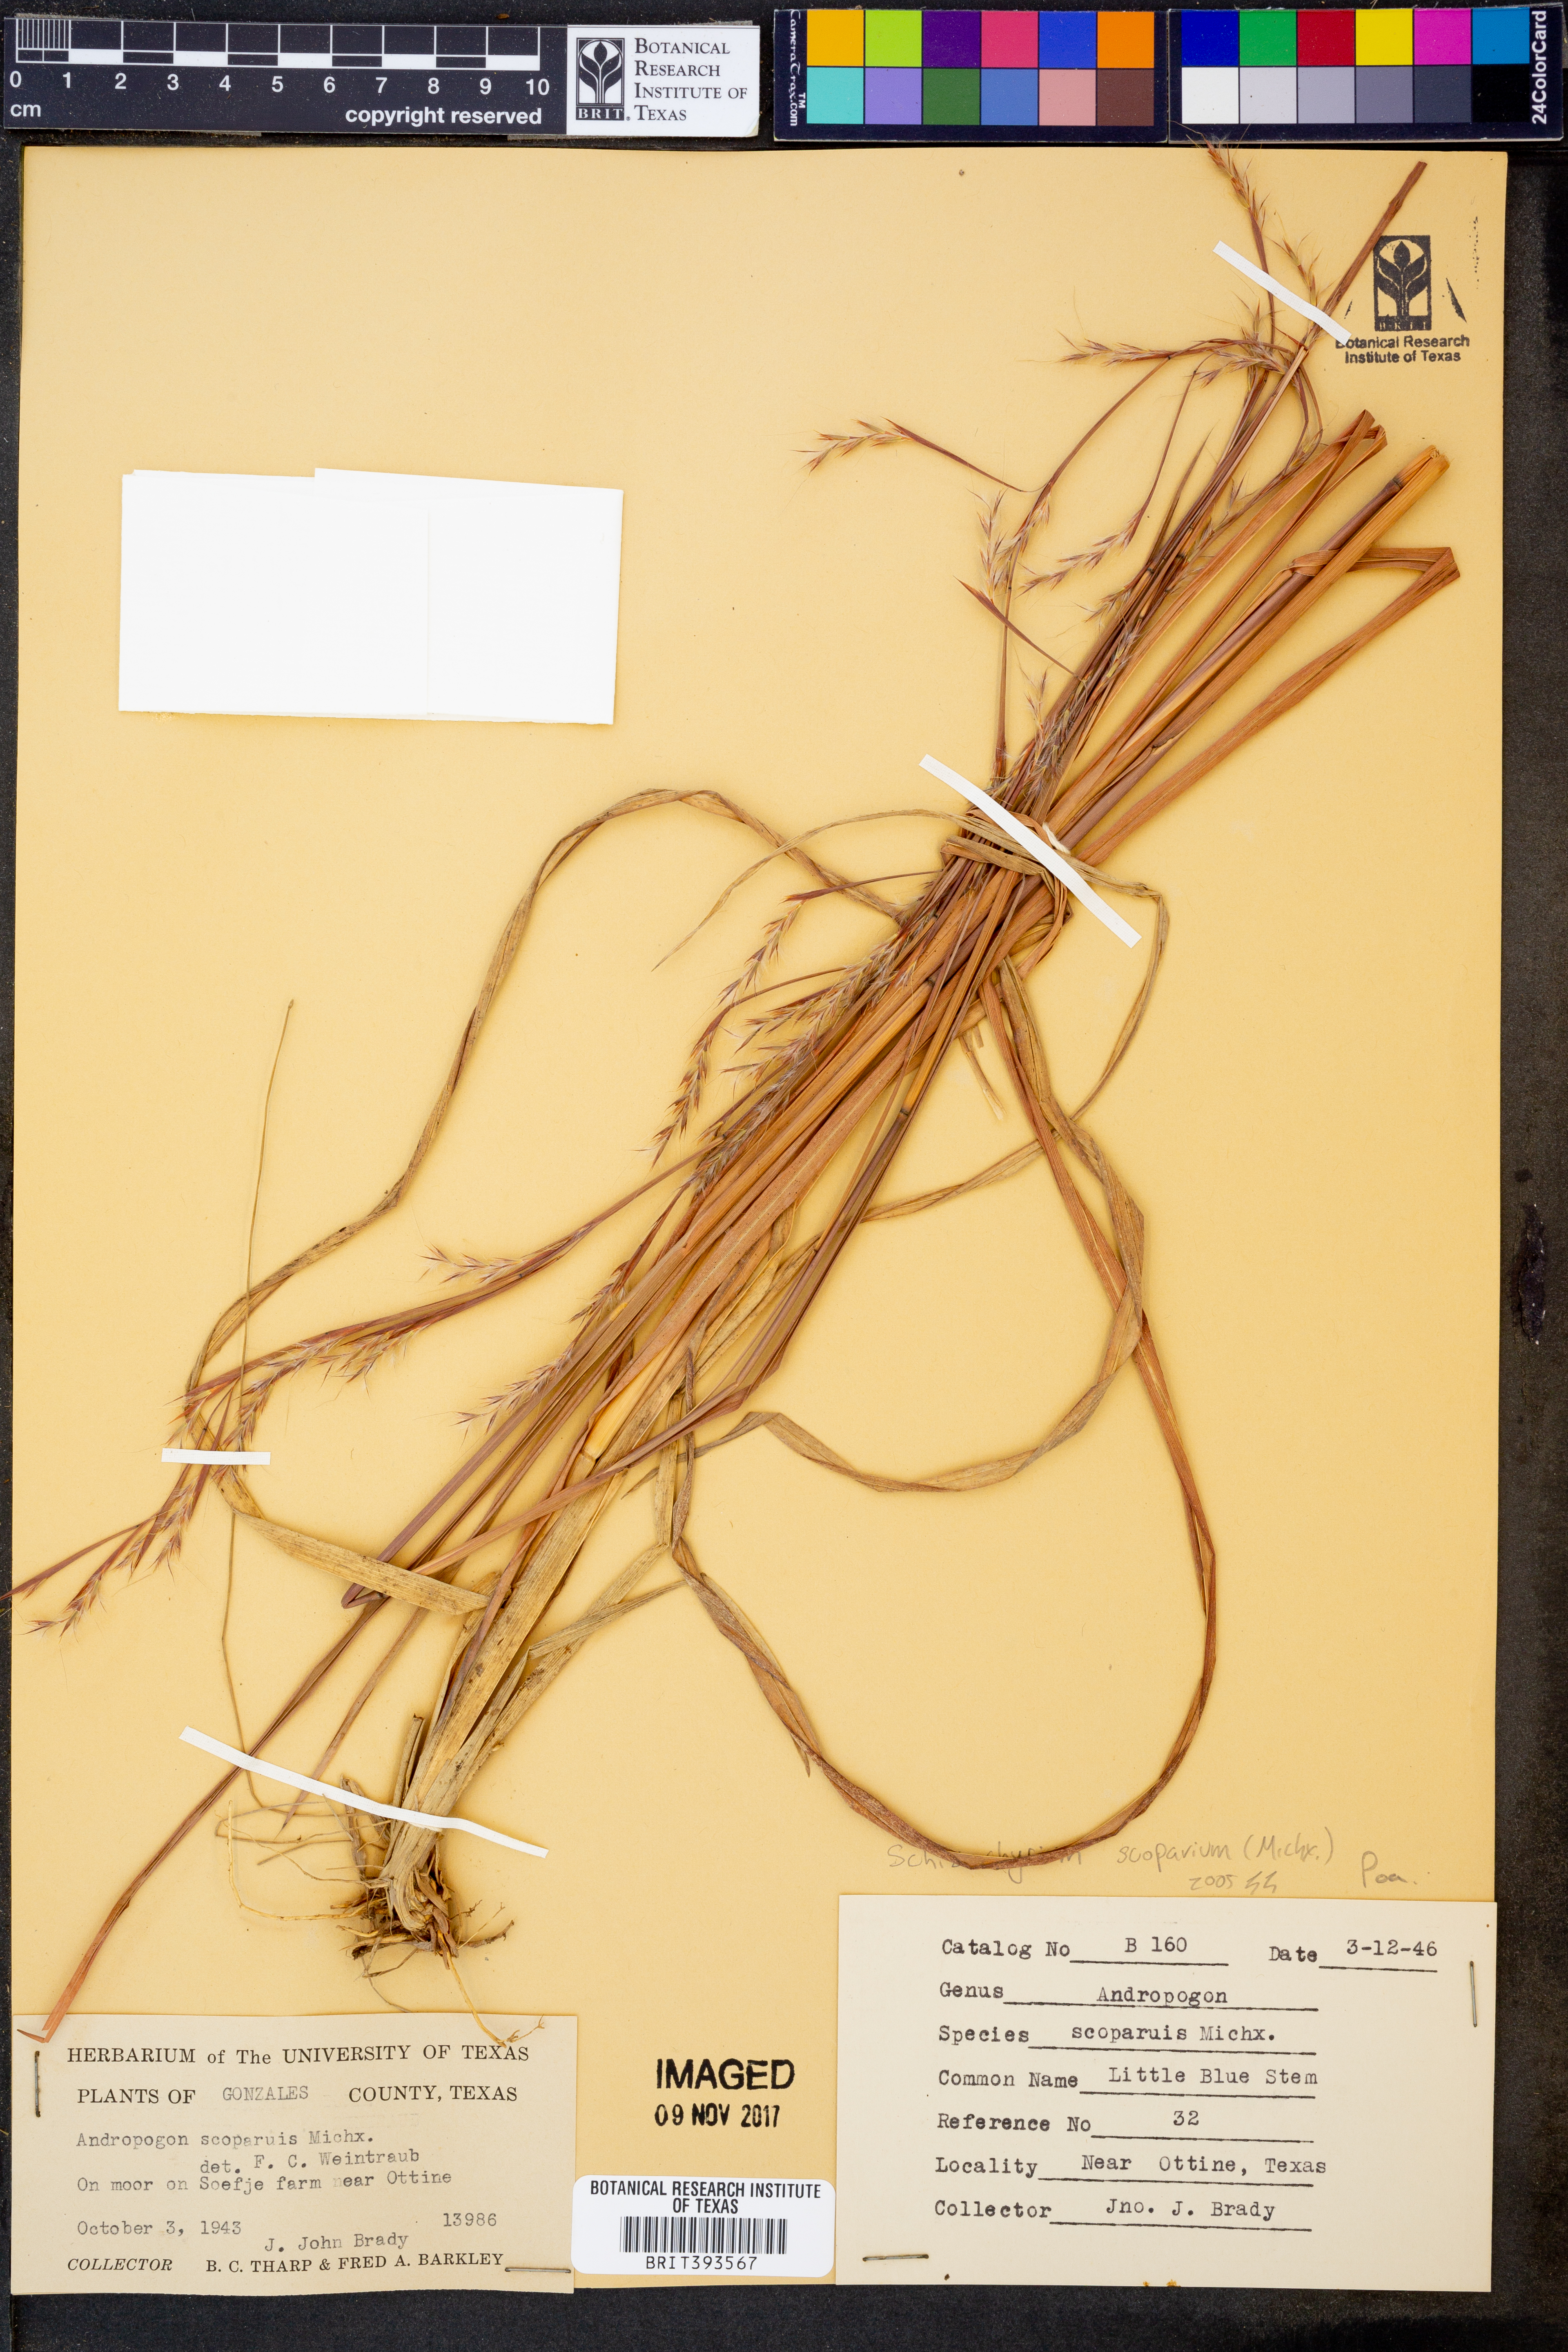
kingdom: Plantae
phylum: Tracheophyta
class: Liliopsida
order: Poales
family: Poaceae
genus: Schizachyrium
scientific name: Schizachyrium scoparium
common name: Little bluestem
